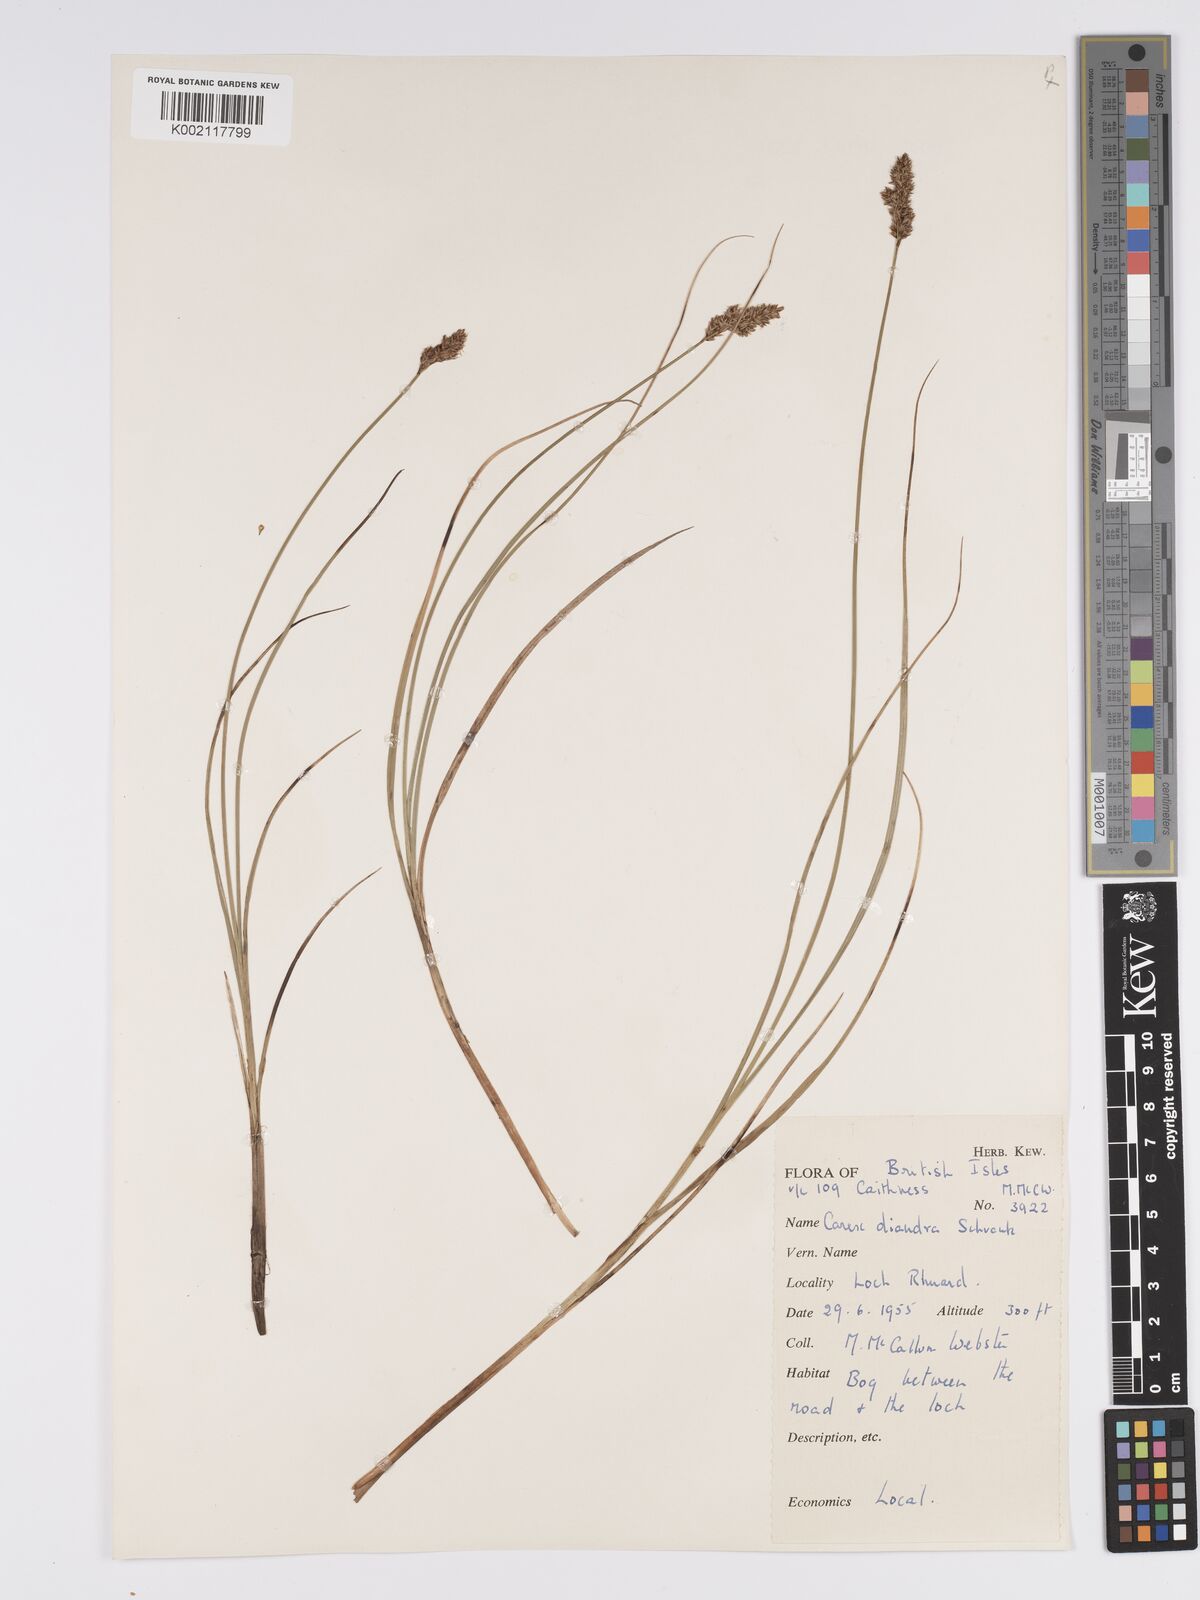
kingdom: Plantae
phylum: Tracheophyta
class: Liliopsida
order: Poales
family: Cyperaceae
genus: Carex
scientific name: Carex diandra
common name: Lesser tussock-sedge
